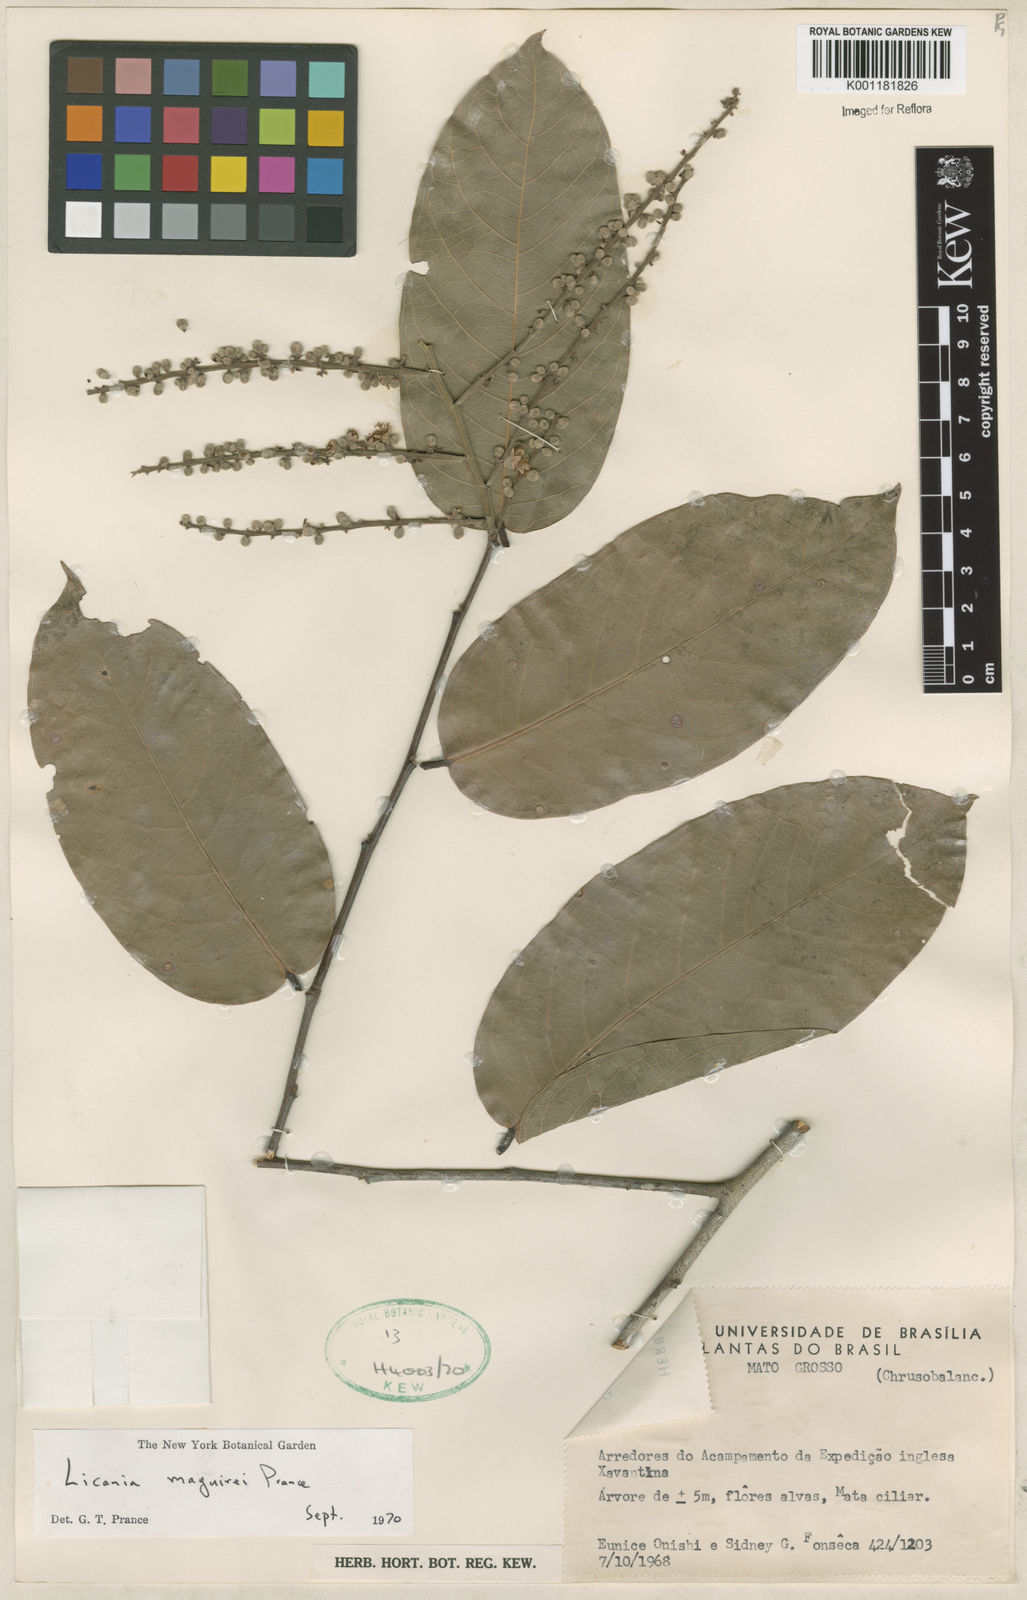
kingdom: Plantae
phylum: Tracheophyta
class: Magnoliopsida
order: Malpighiales
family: Chrysobalanaceae
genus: Leptobalanus
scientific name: Leptobalanus maguirei
